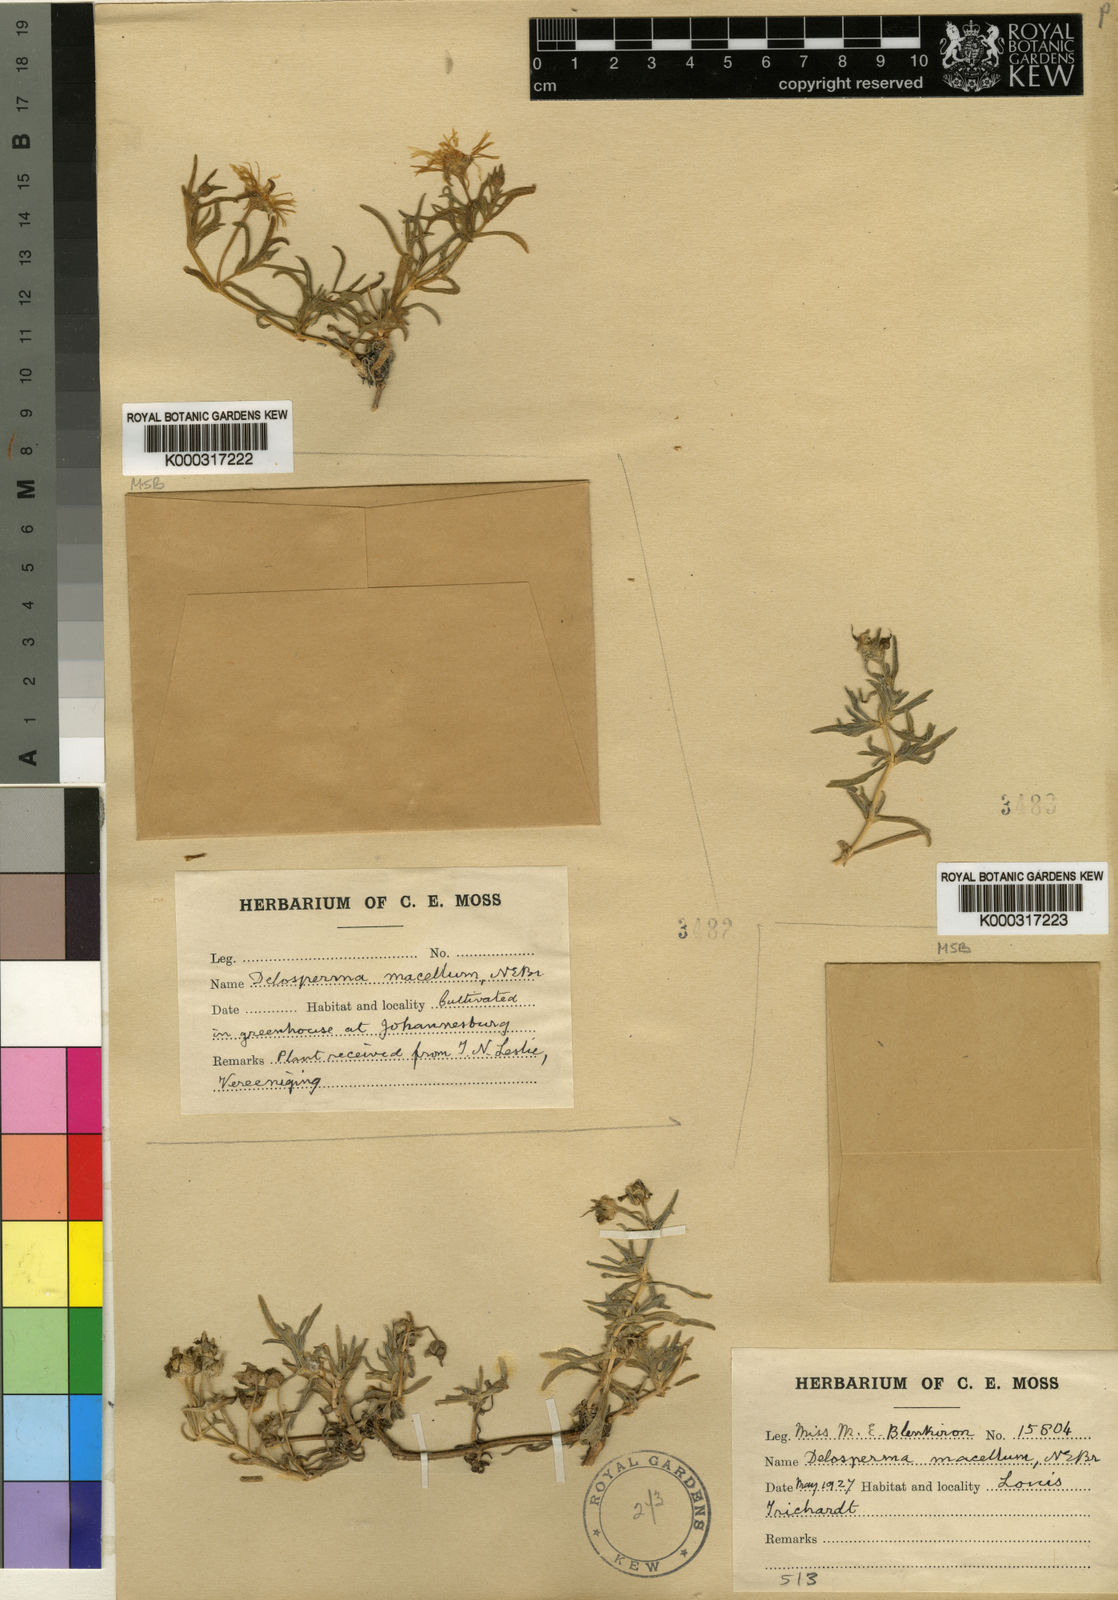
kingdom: Plantae
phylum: Tracheophyta
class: Magnoliopsida
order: Caryophyllales
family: Aizoaceae
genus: Delosperma
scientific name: Delosperma macellum
